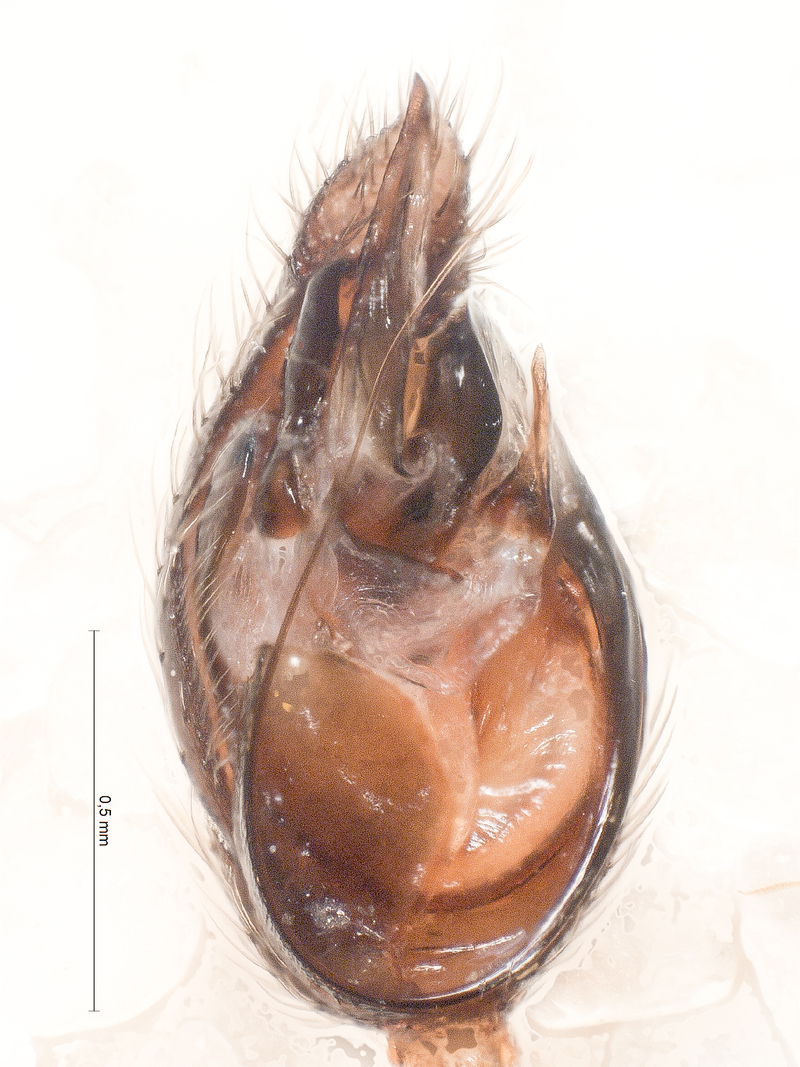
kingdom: Animalia
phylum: Arthropoda
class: Arachnida
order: Araneae
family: Theridiidae
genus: Asagena
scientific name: Asagena phalerata
